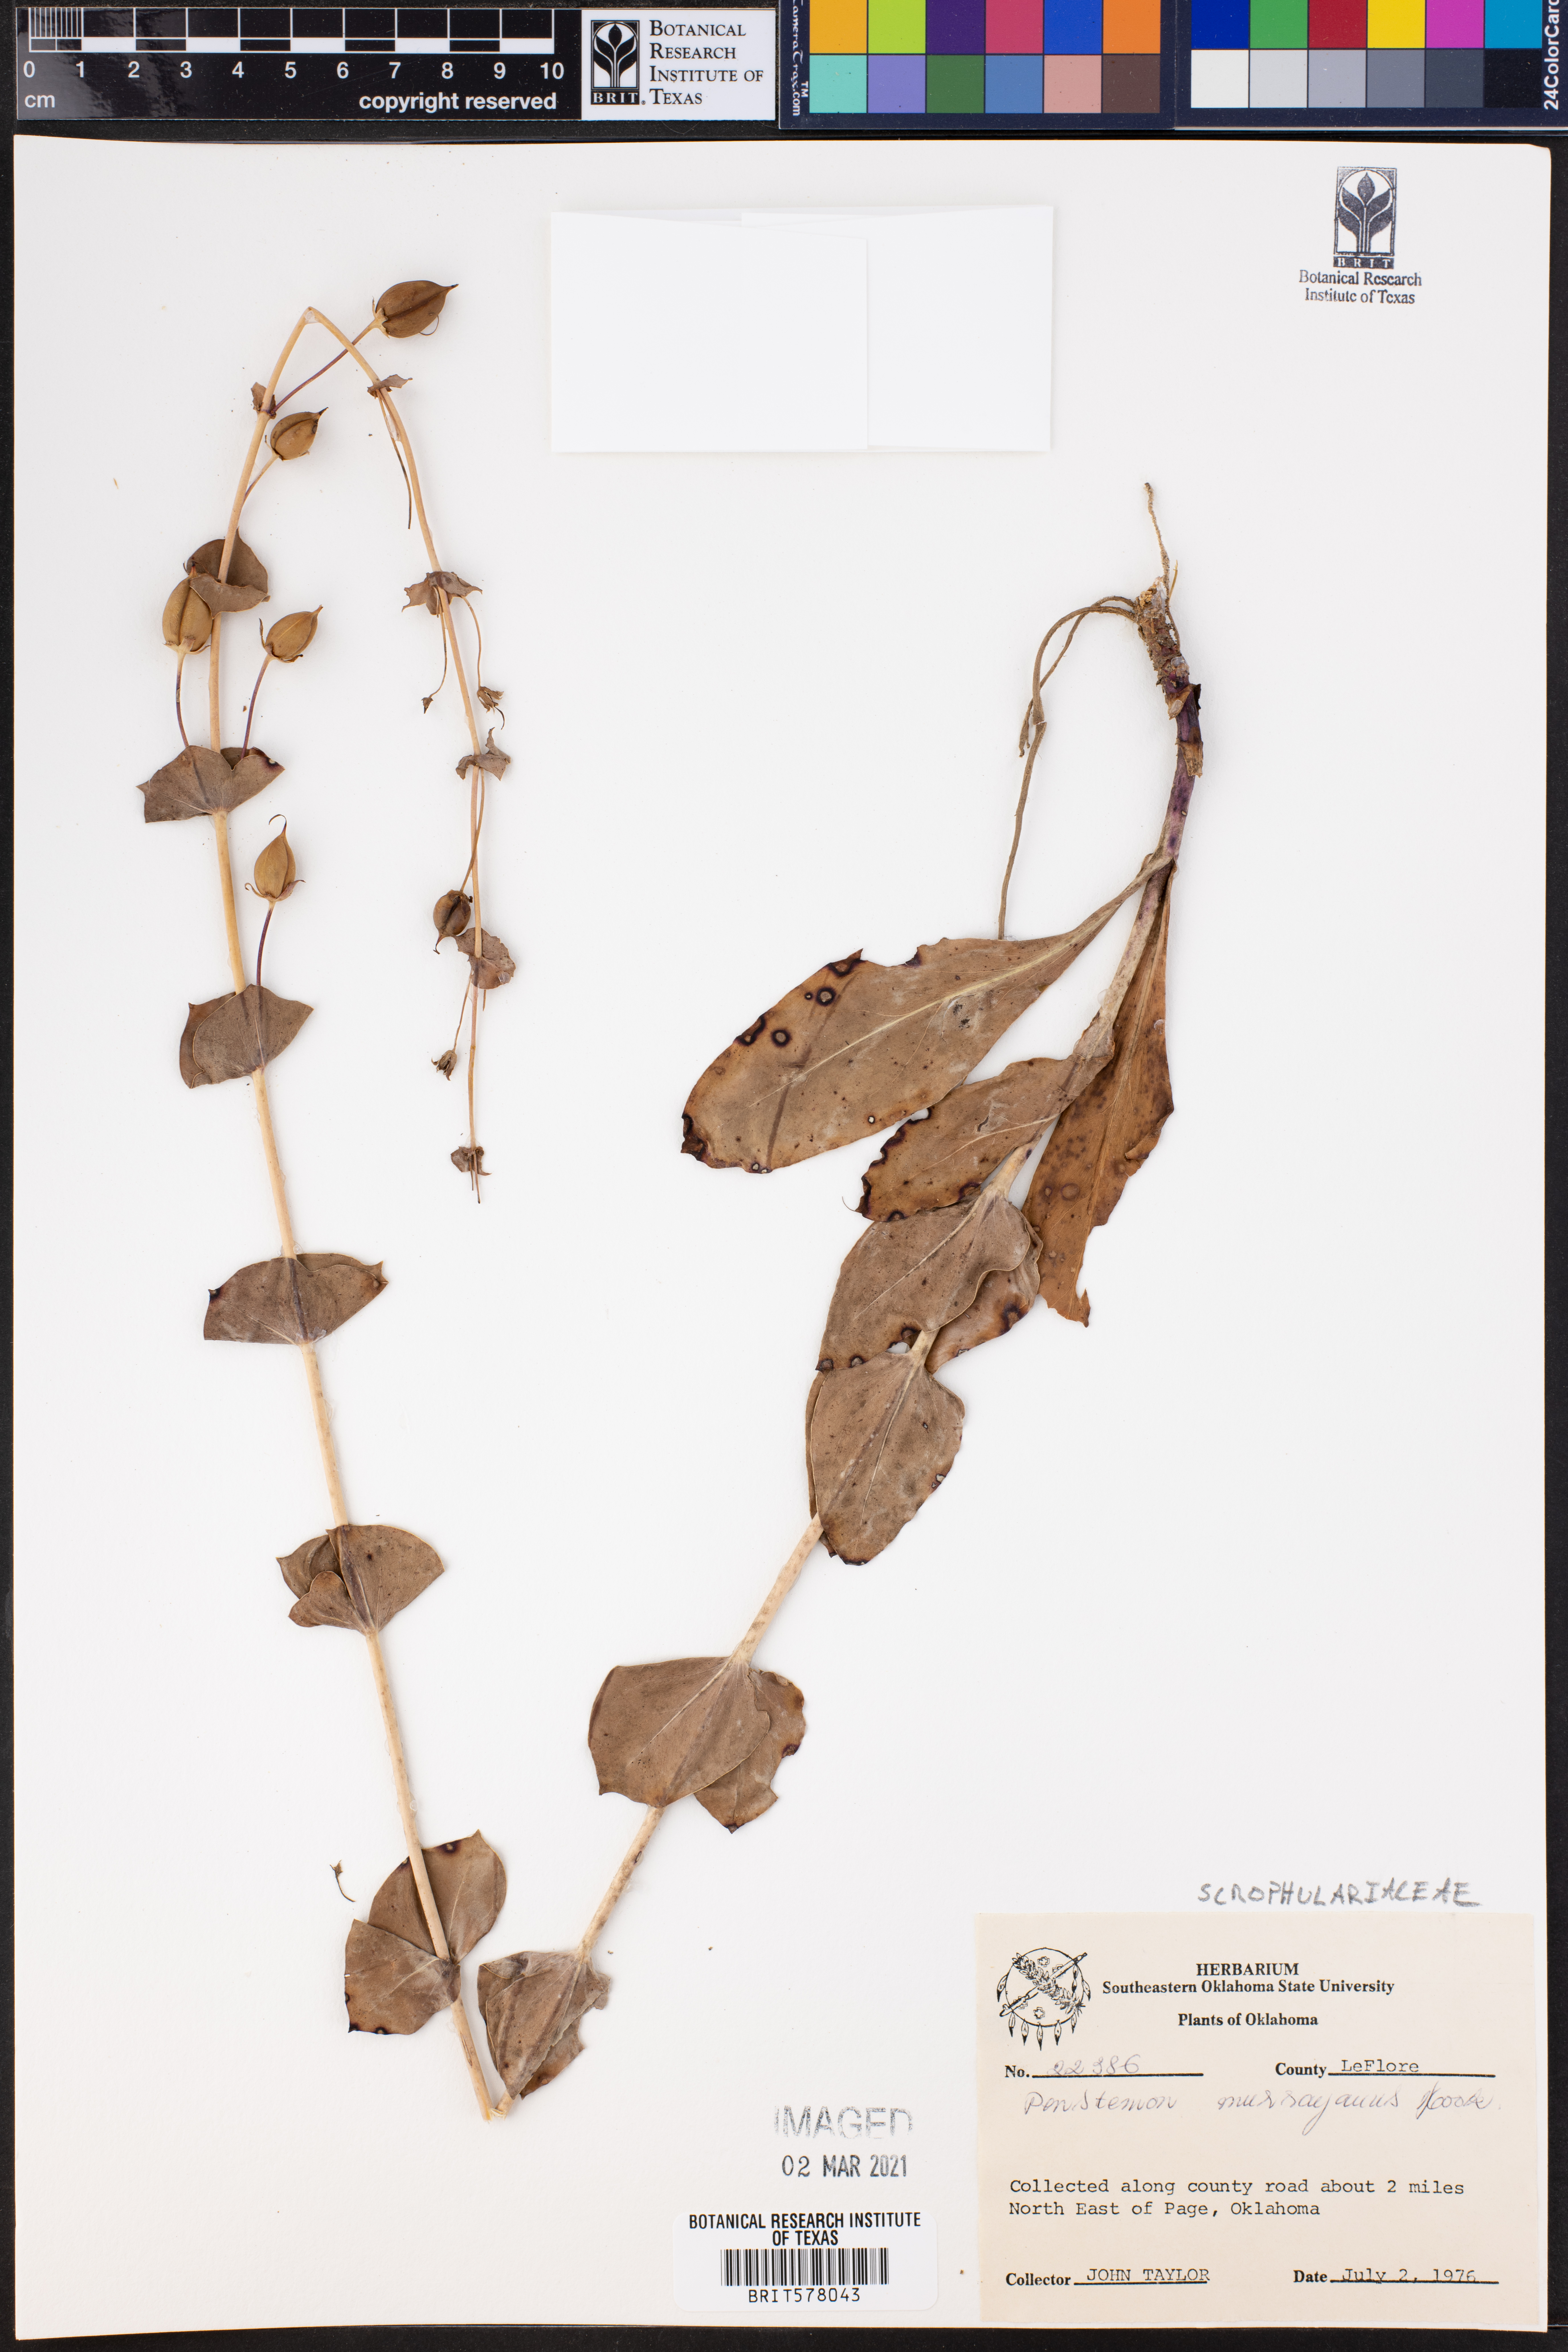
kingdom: Plantae
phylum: Tracheophyta
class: Magnoliopsida
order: Lamiales
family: Plantaginaceae
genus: Penstemon
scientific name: Penstemon murrayanus
